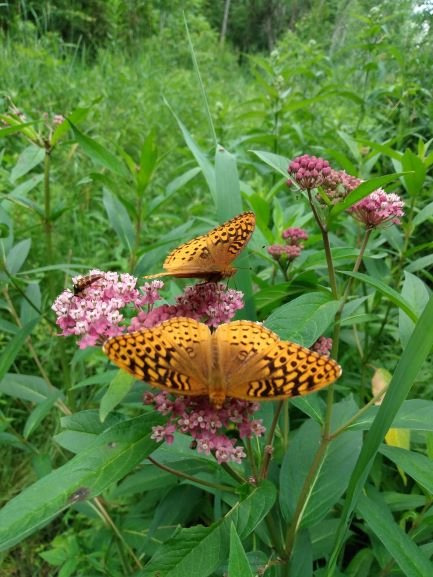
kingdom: Animalia
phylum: Arthropoda
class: Insecta
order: Lepidoptera
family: Nymphalidae
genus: Speyeria
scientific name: Speyeria cybele
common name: Great Spangled Fritillary
